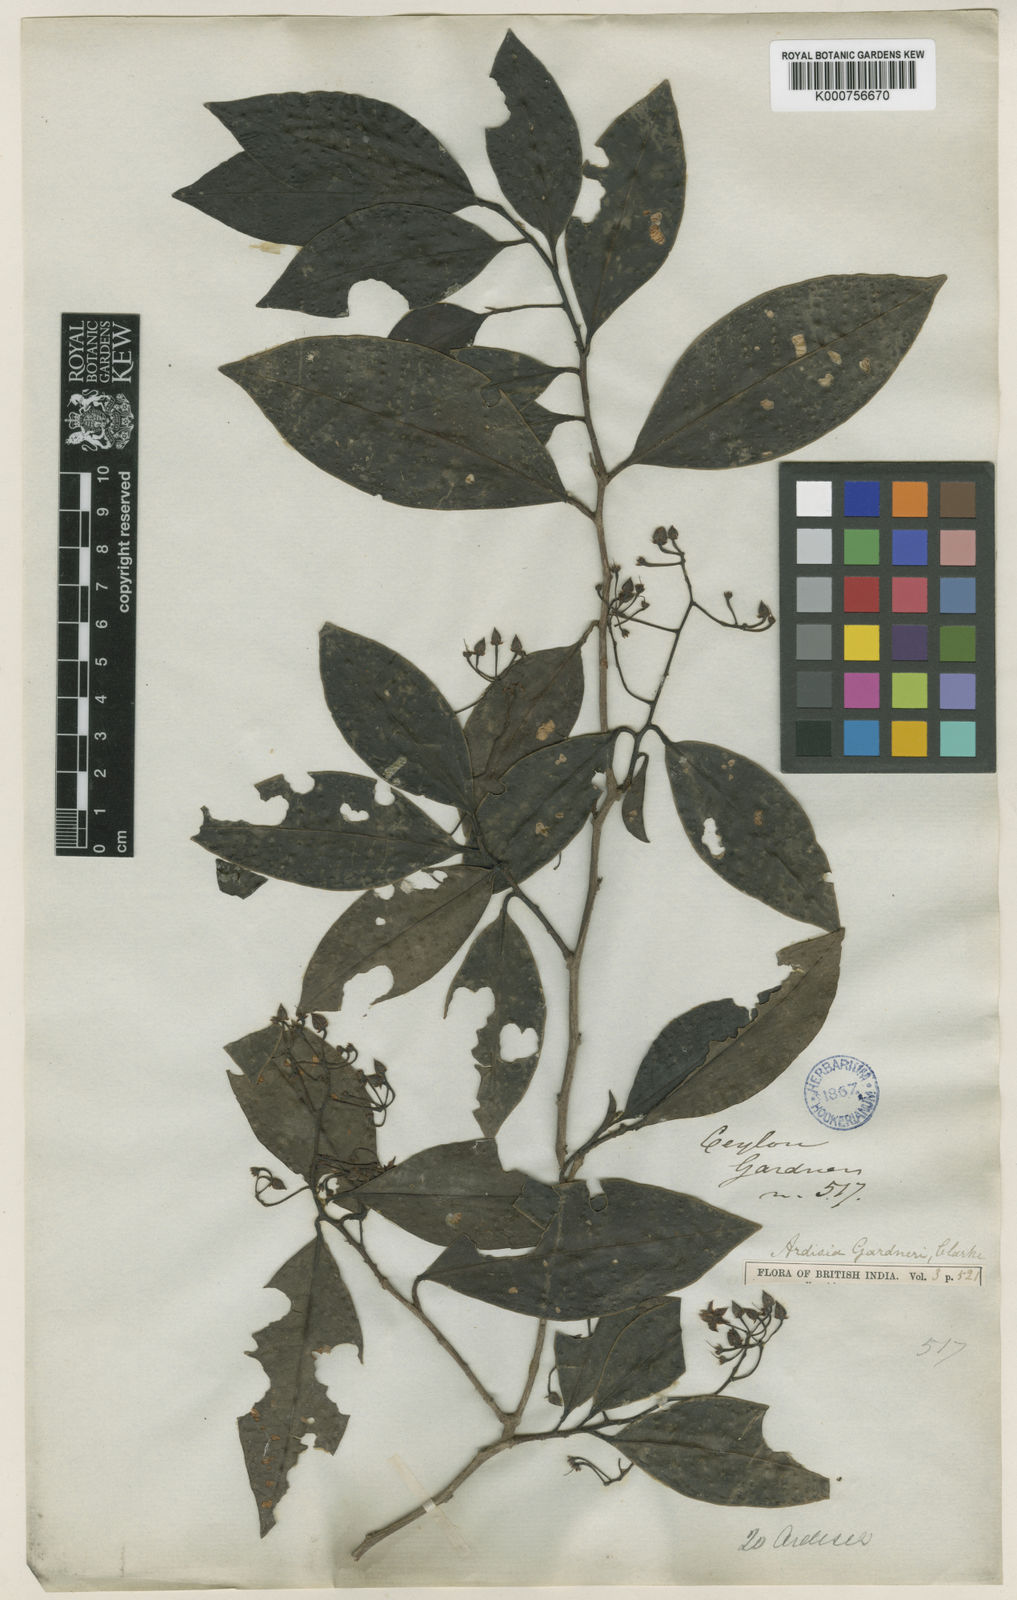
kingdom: Plantae
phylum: Tracheophyta
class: Magnoliopsida
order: Ericales
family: Primulaceae
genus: Ardisia
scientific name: Ardisia gardneri
